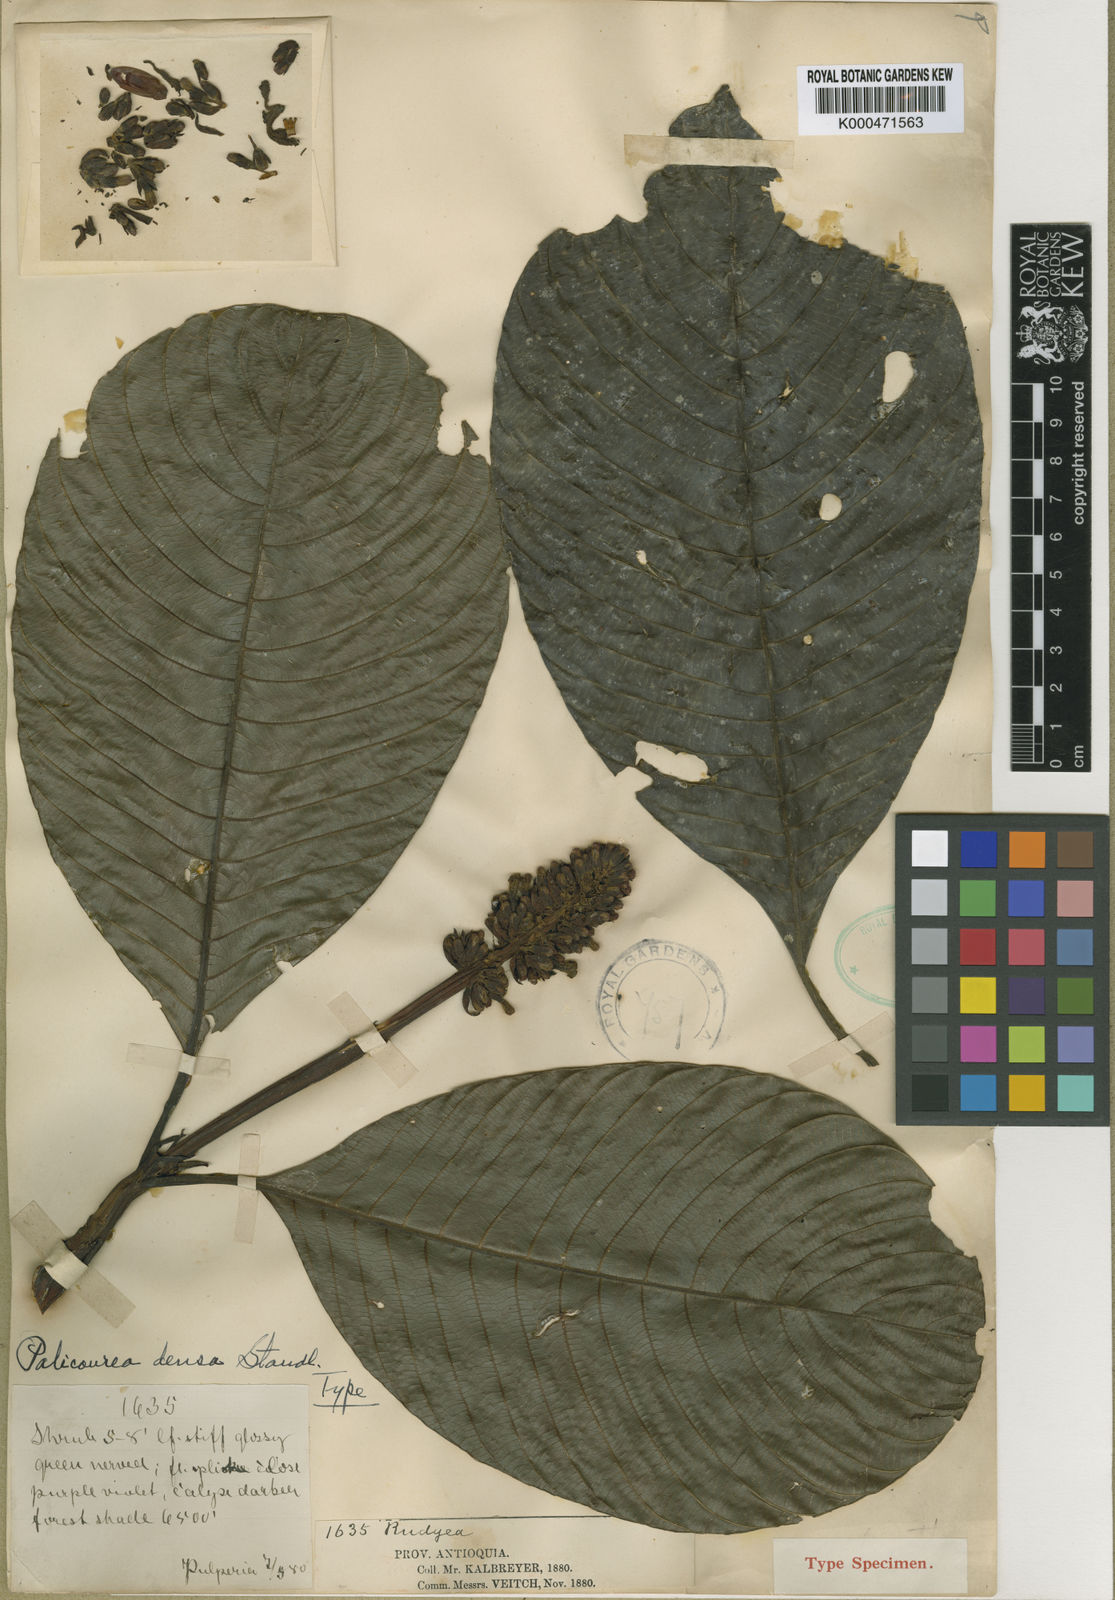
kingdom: Plantae
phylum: Tracheophyta
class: Magnoliopsida
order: Gentianales
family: Rubiaceae
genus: Palicourea
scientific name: Palicourea densa
